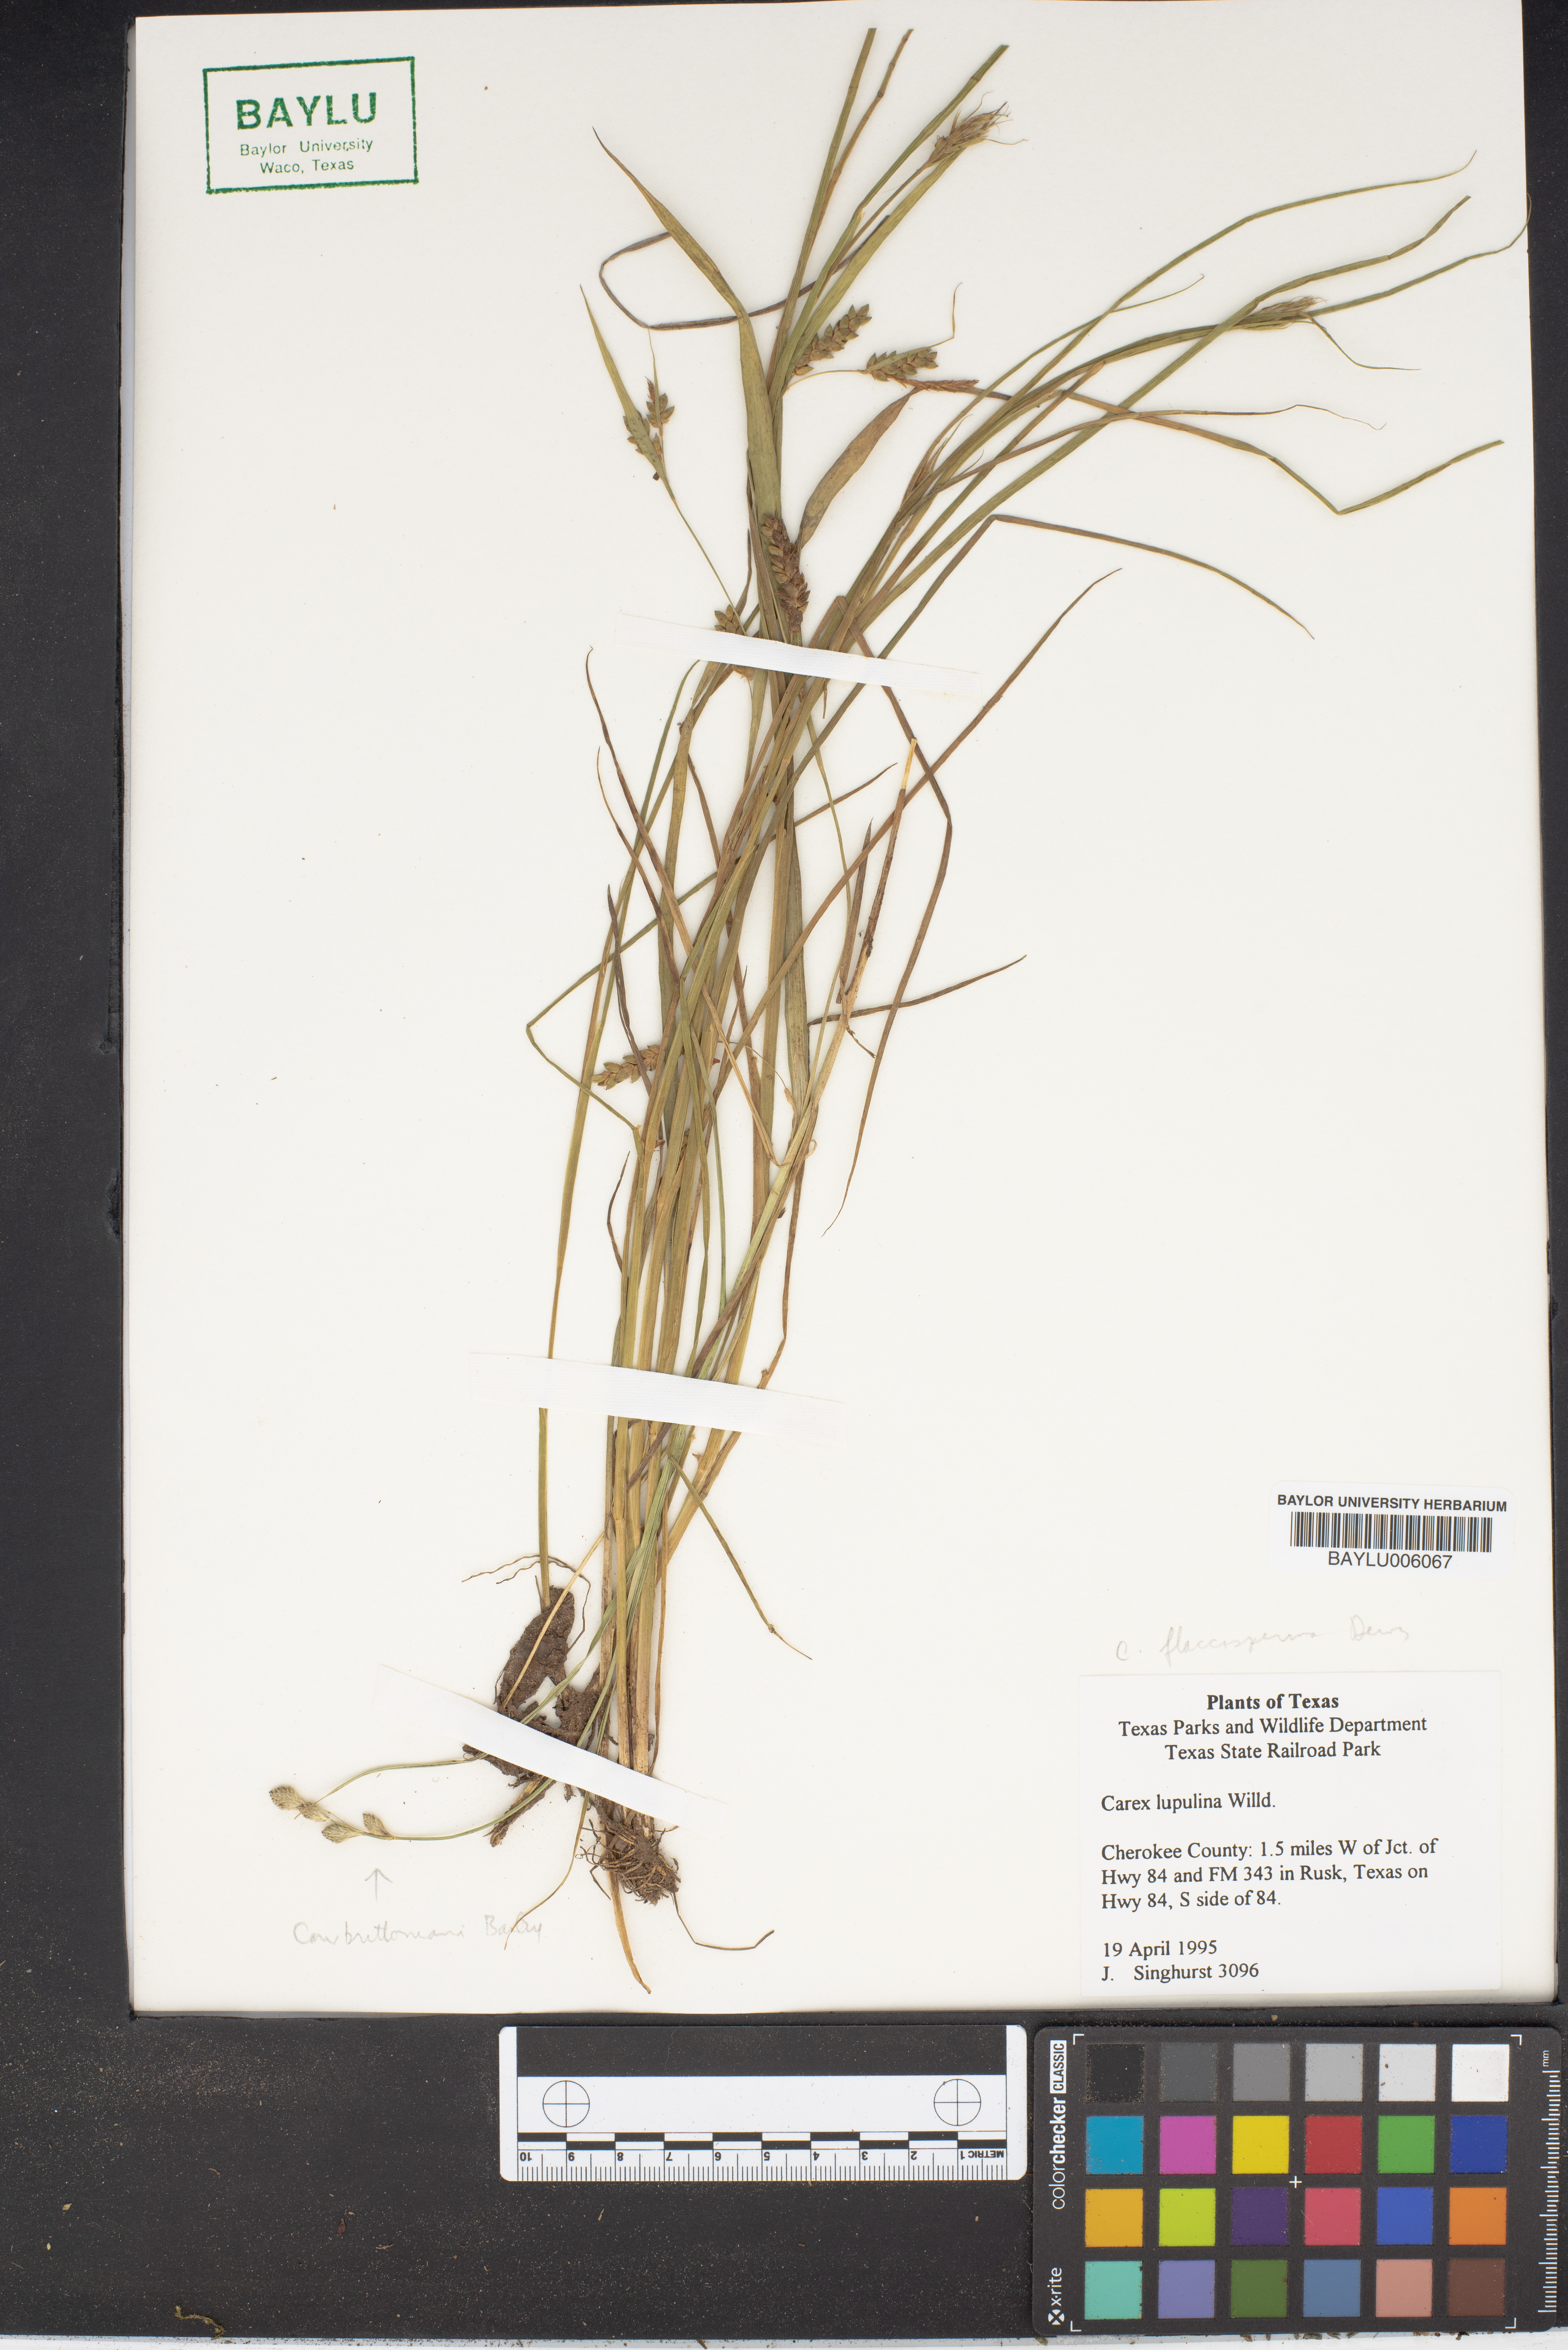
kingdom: Plantae
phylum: Tracheophyta
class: Liliopsida
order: Poales
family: Cyperaceae
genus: Carex
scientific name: Carex lupulina
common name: Hop sedge
